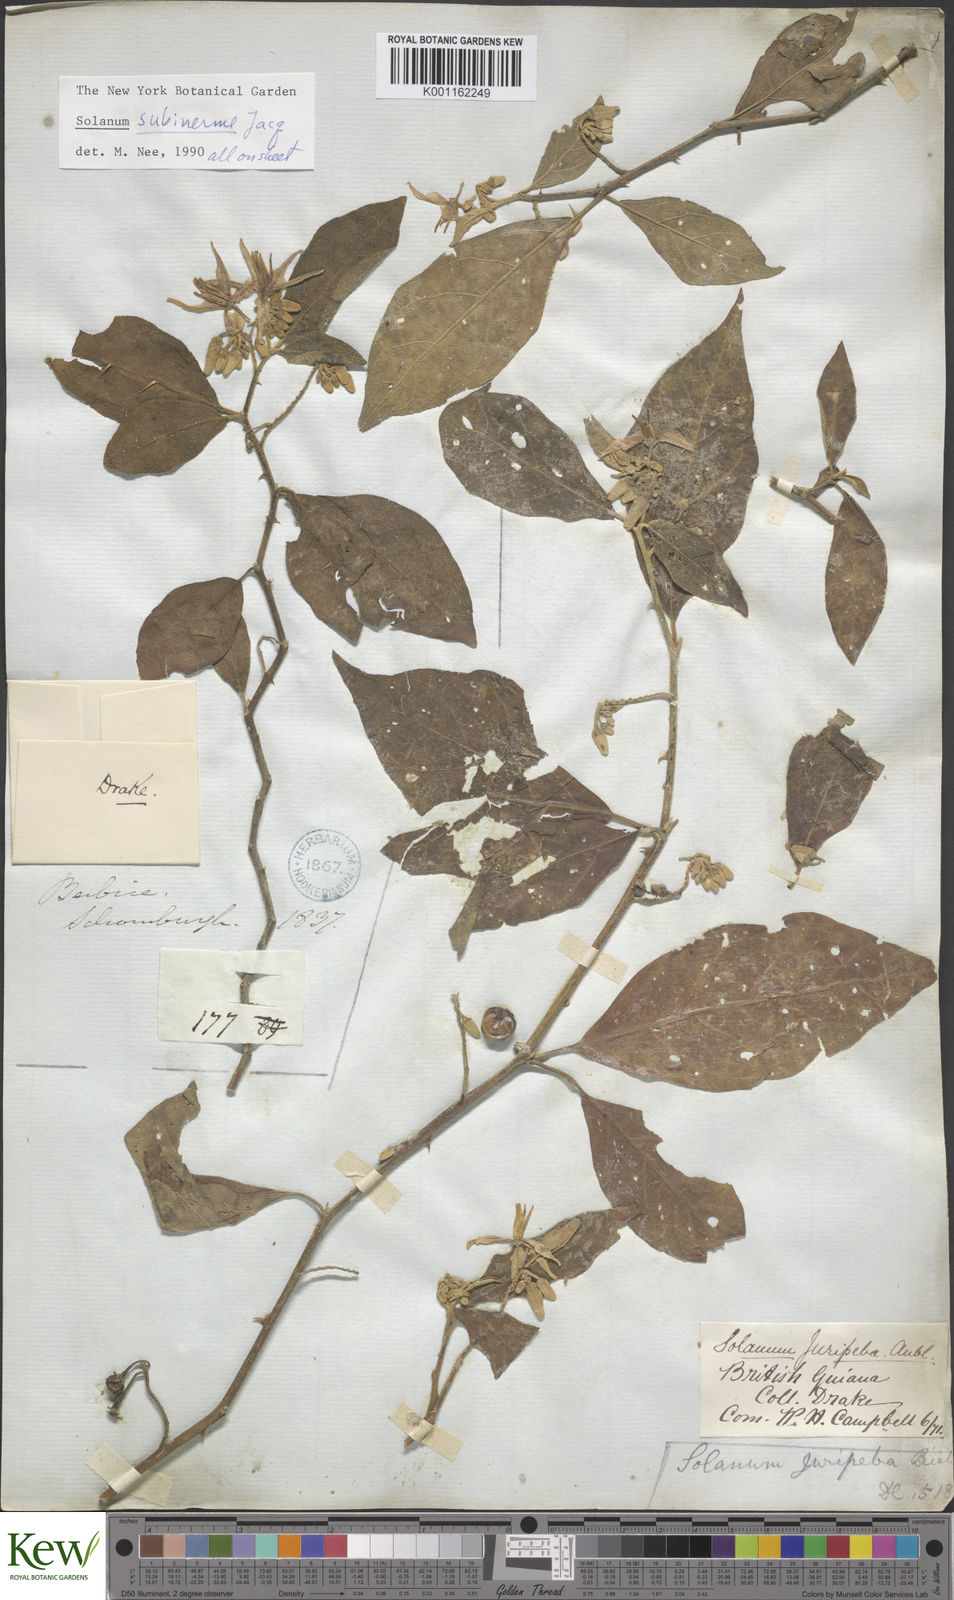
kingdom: Plantae
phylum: Tracheophyta
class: Magnoliopsida
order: Solanales
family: Solanaceae
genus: Solanum
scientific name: Solanum subinerme
